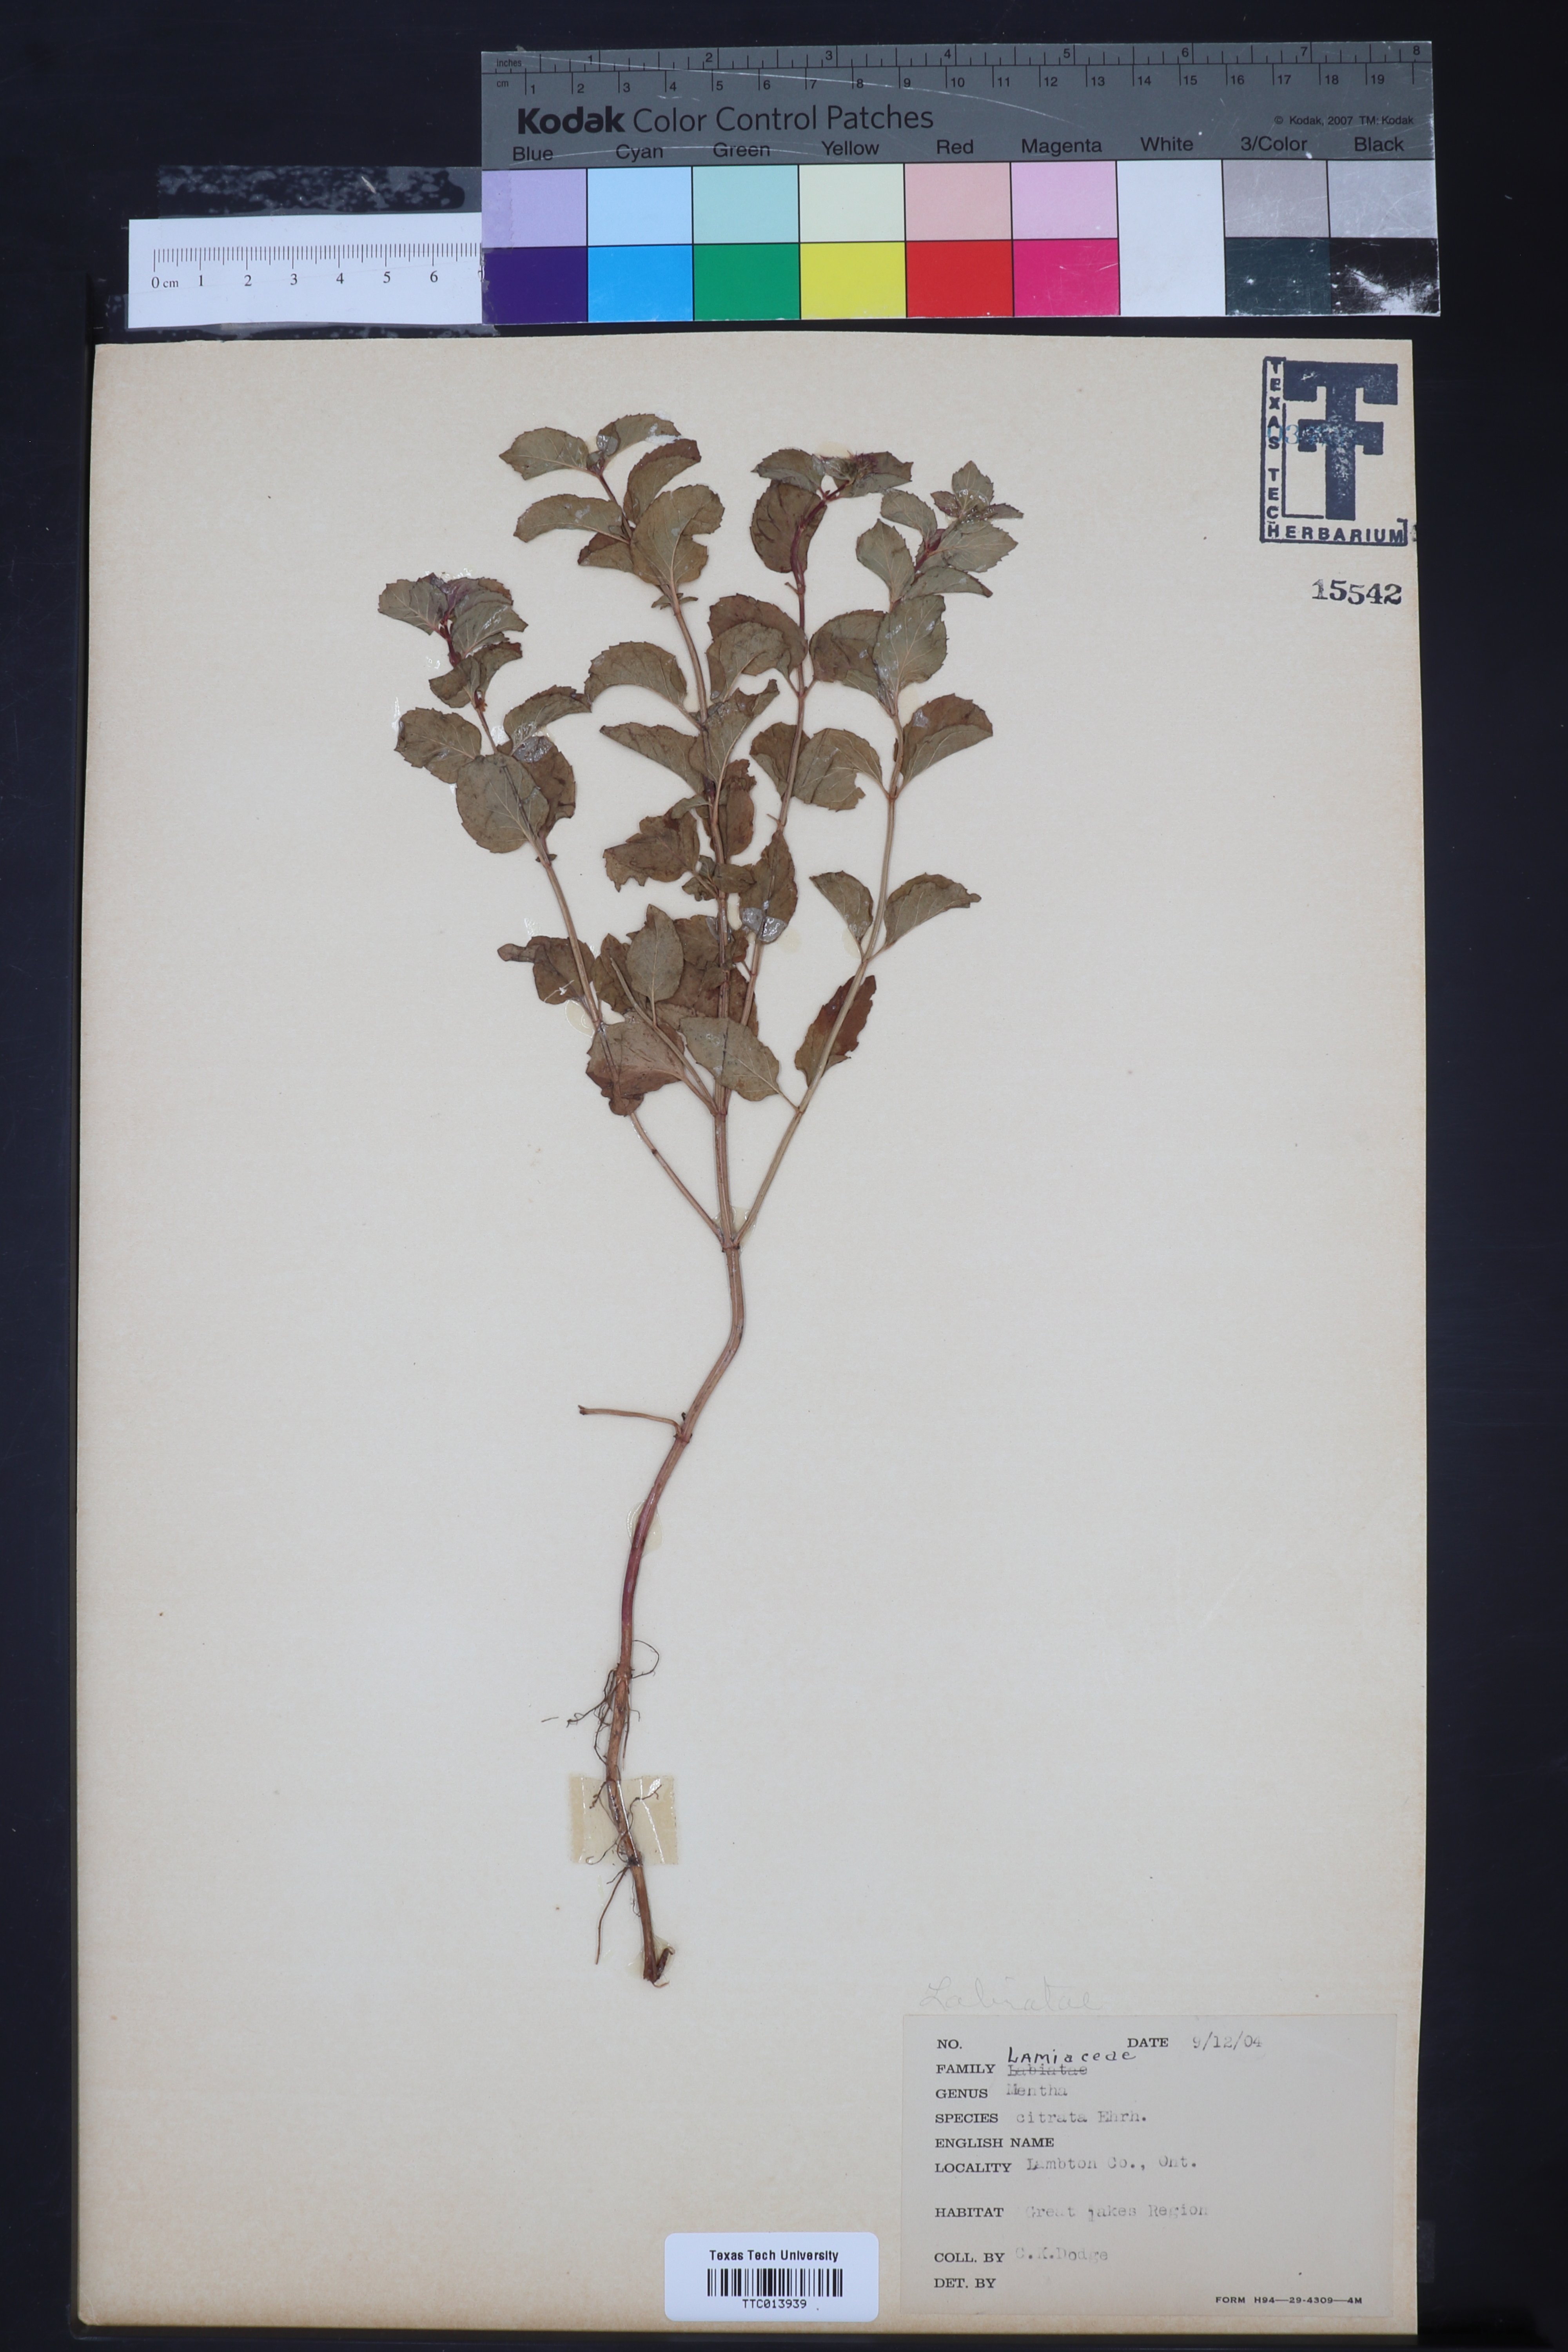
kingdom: Plantae
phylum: Tracheophyta
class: Magnoliopsida
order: Lamiales
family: Lamiaceae
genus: Mentha
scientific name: Mentha aquatica
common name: Water mint
